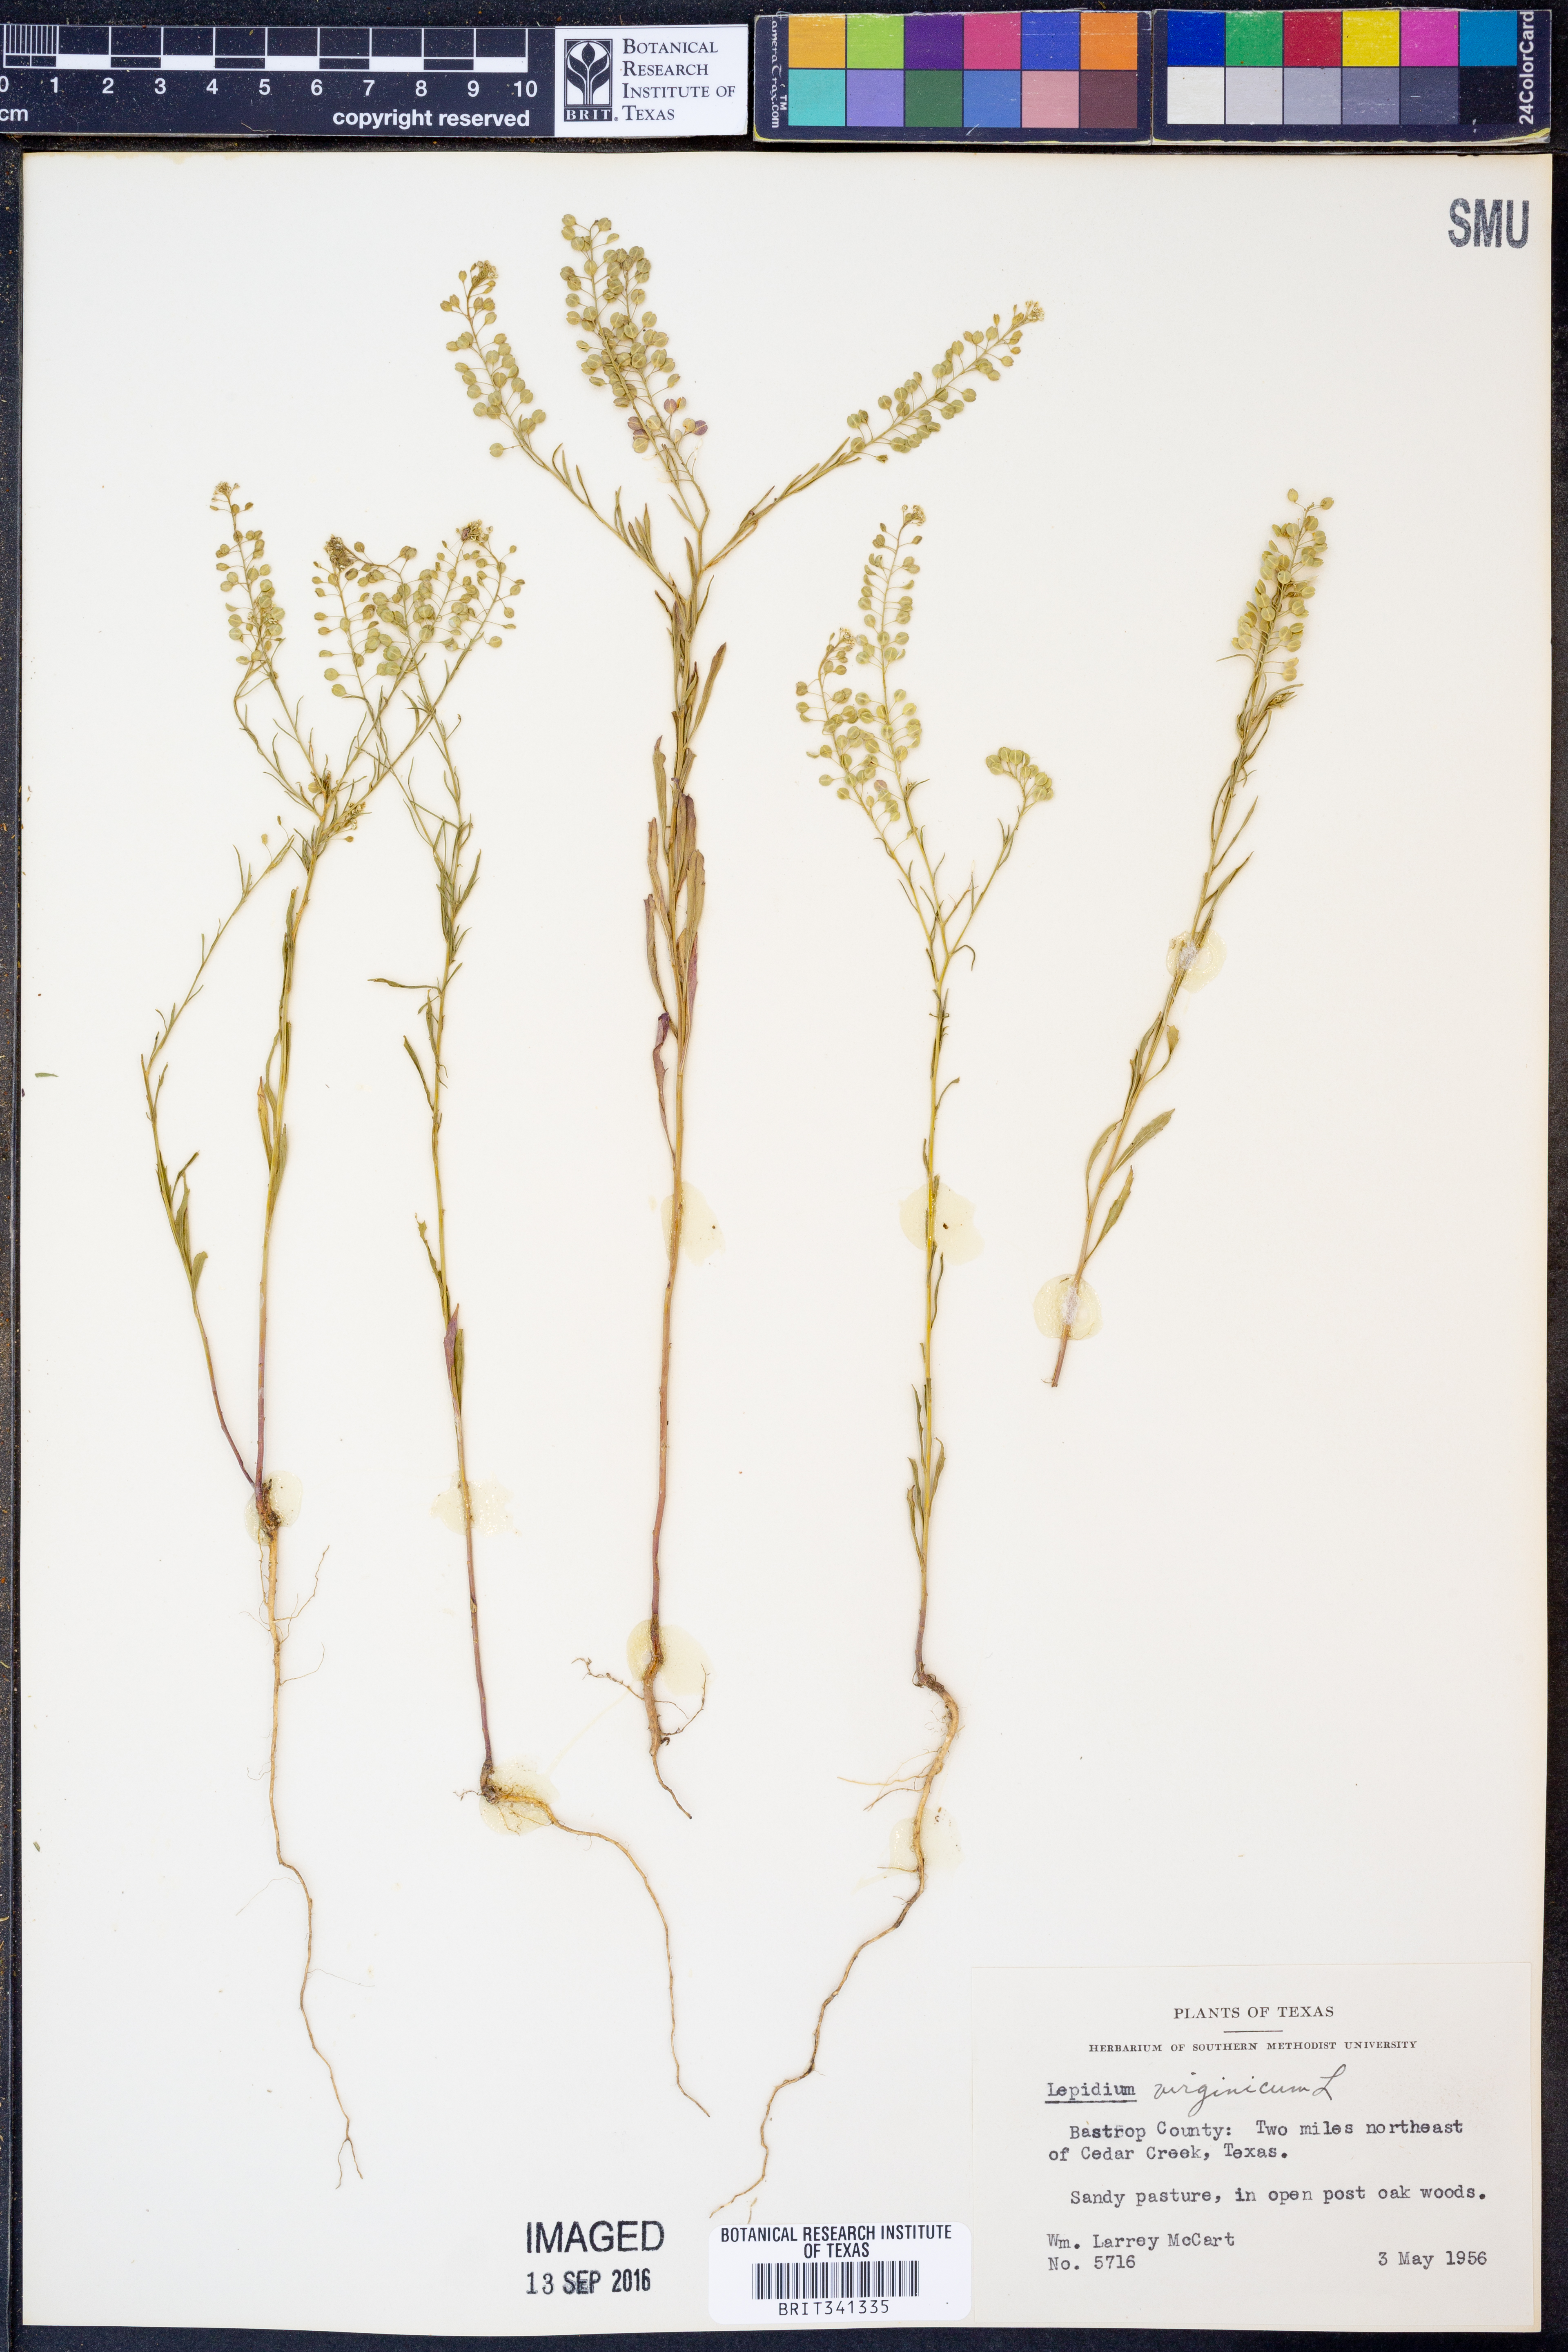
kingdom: Plantae
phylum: Tracheophyta
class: Magnoliopsida
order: Brassicales
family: Brassicaceae
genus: Lepidium
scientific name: Lepidium virginicum
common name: Least pepperwort
